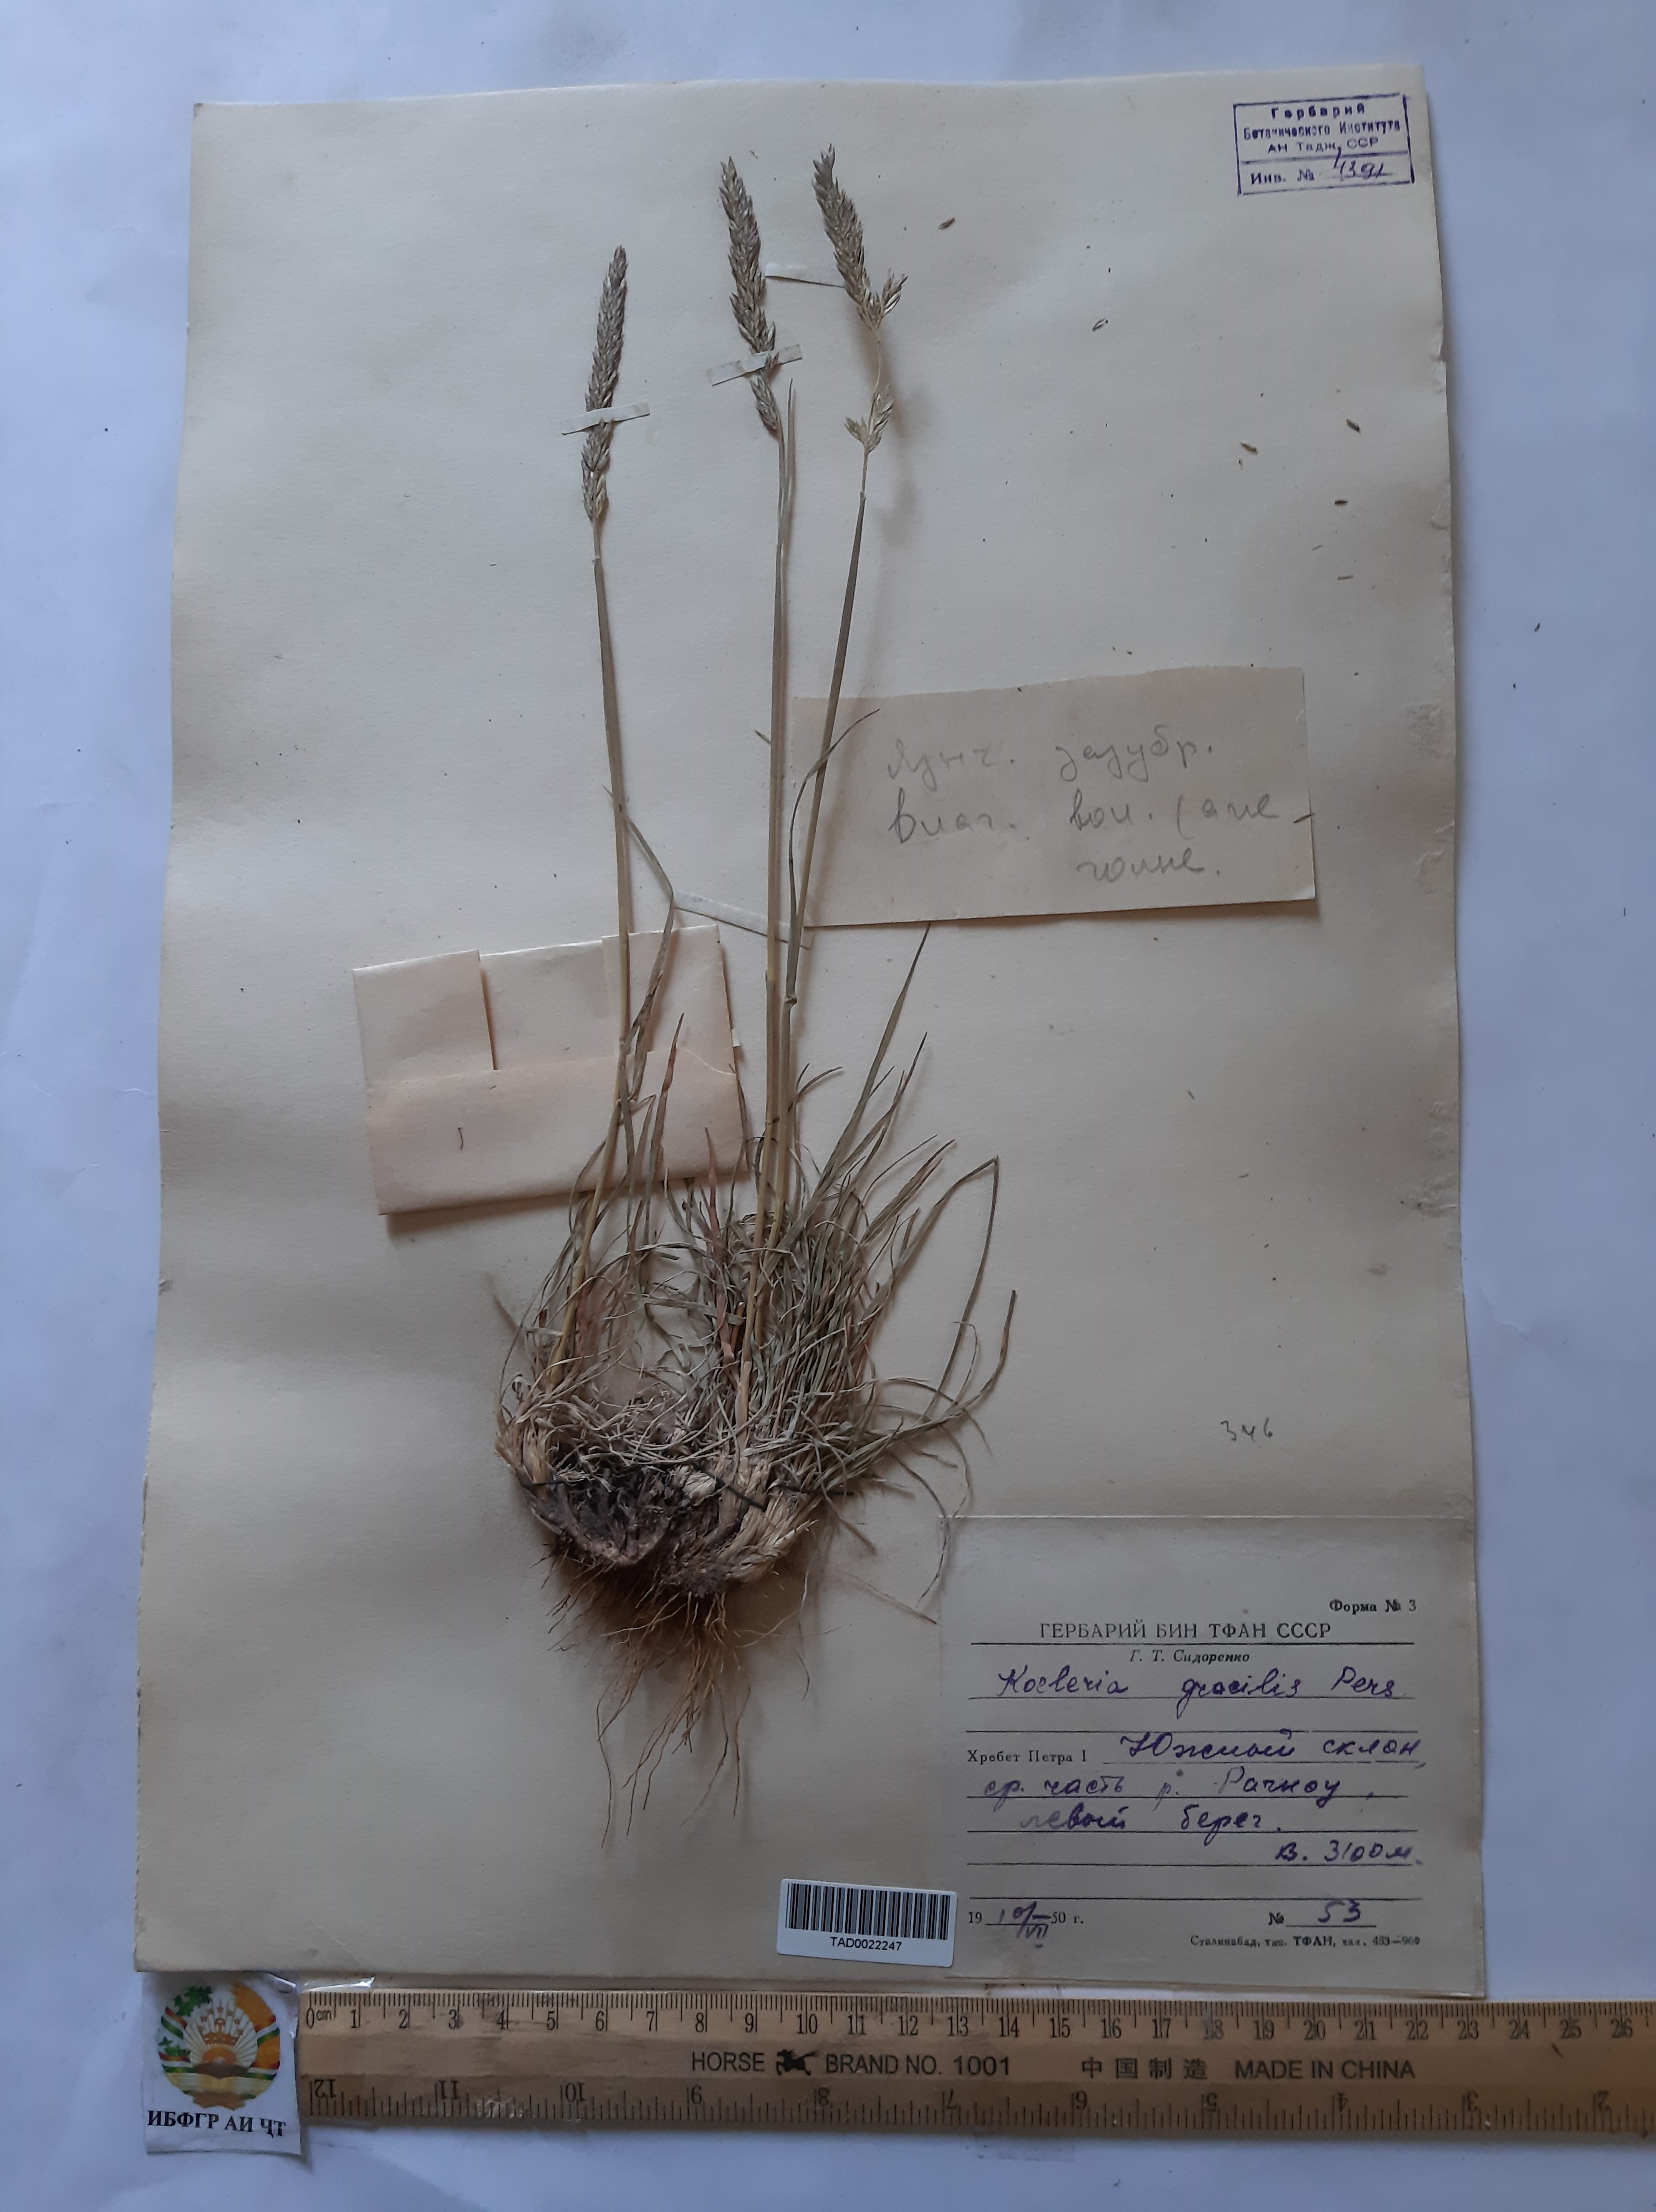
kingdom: Plantae
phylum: Tracheophyta
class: Liliopsida
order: Poales
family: Poaceae
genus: Koeleria
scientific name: Koeleria macrantha
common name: Crested hair-grass
